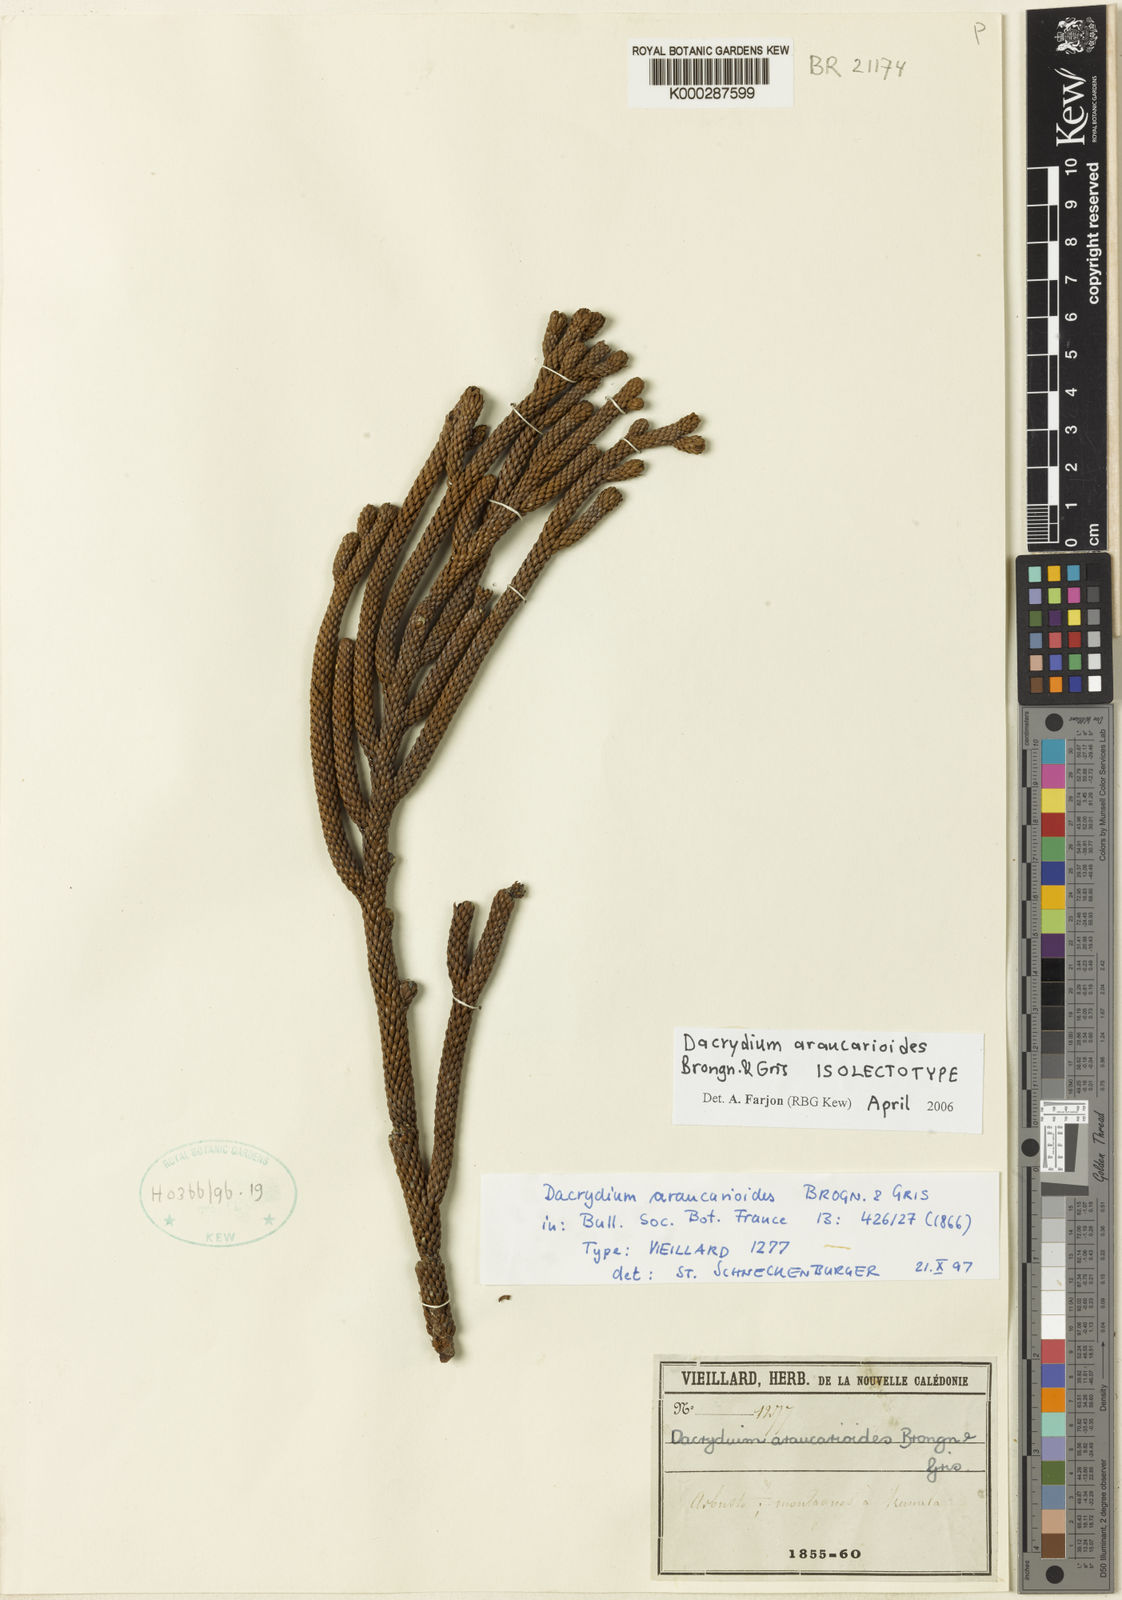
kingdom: Plantae
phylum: Tracheophyta
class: Pinopsida
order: Pinales
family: Podocarpaceae
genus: Dacrydium
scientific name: Dacrydium araucarioides
